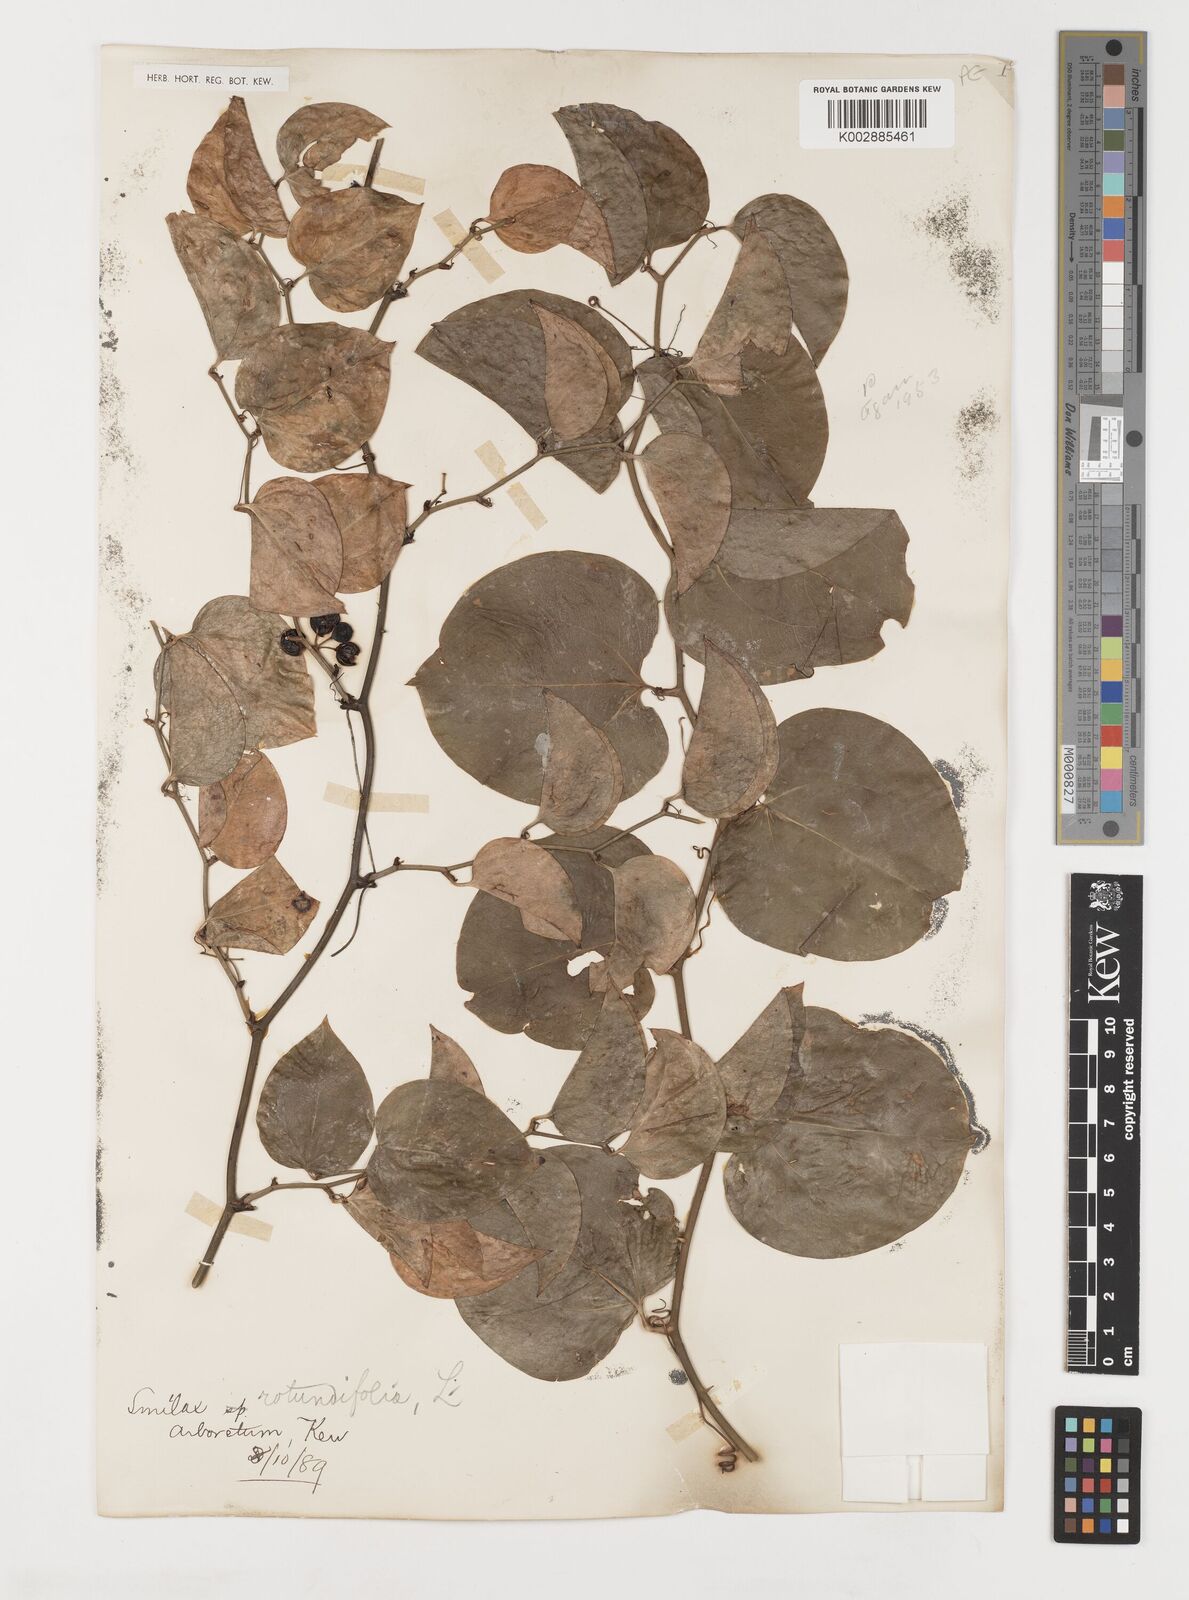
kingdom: Plantae
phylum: Tracheophyta
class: Liliopsida
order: Liliales
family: Smilacaceae
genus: Smilax
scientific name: Smilax rotundifolia
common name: Bullbriar
